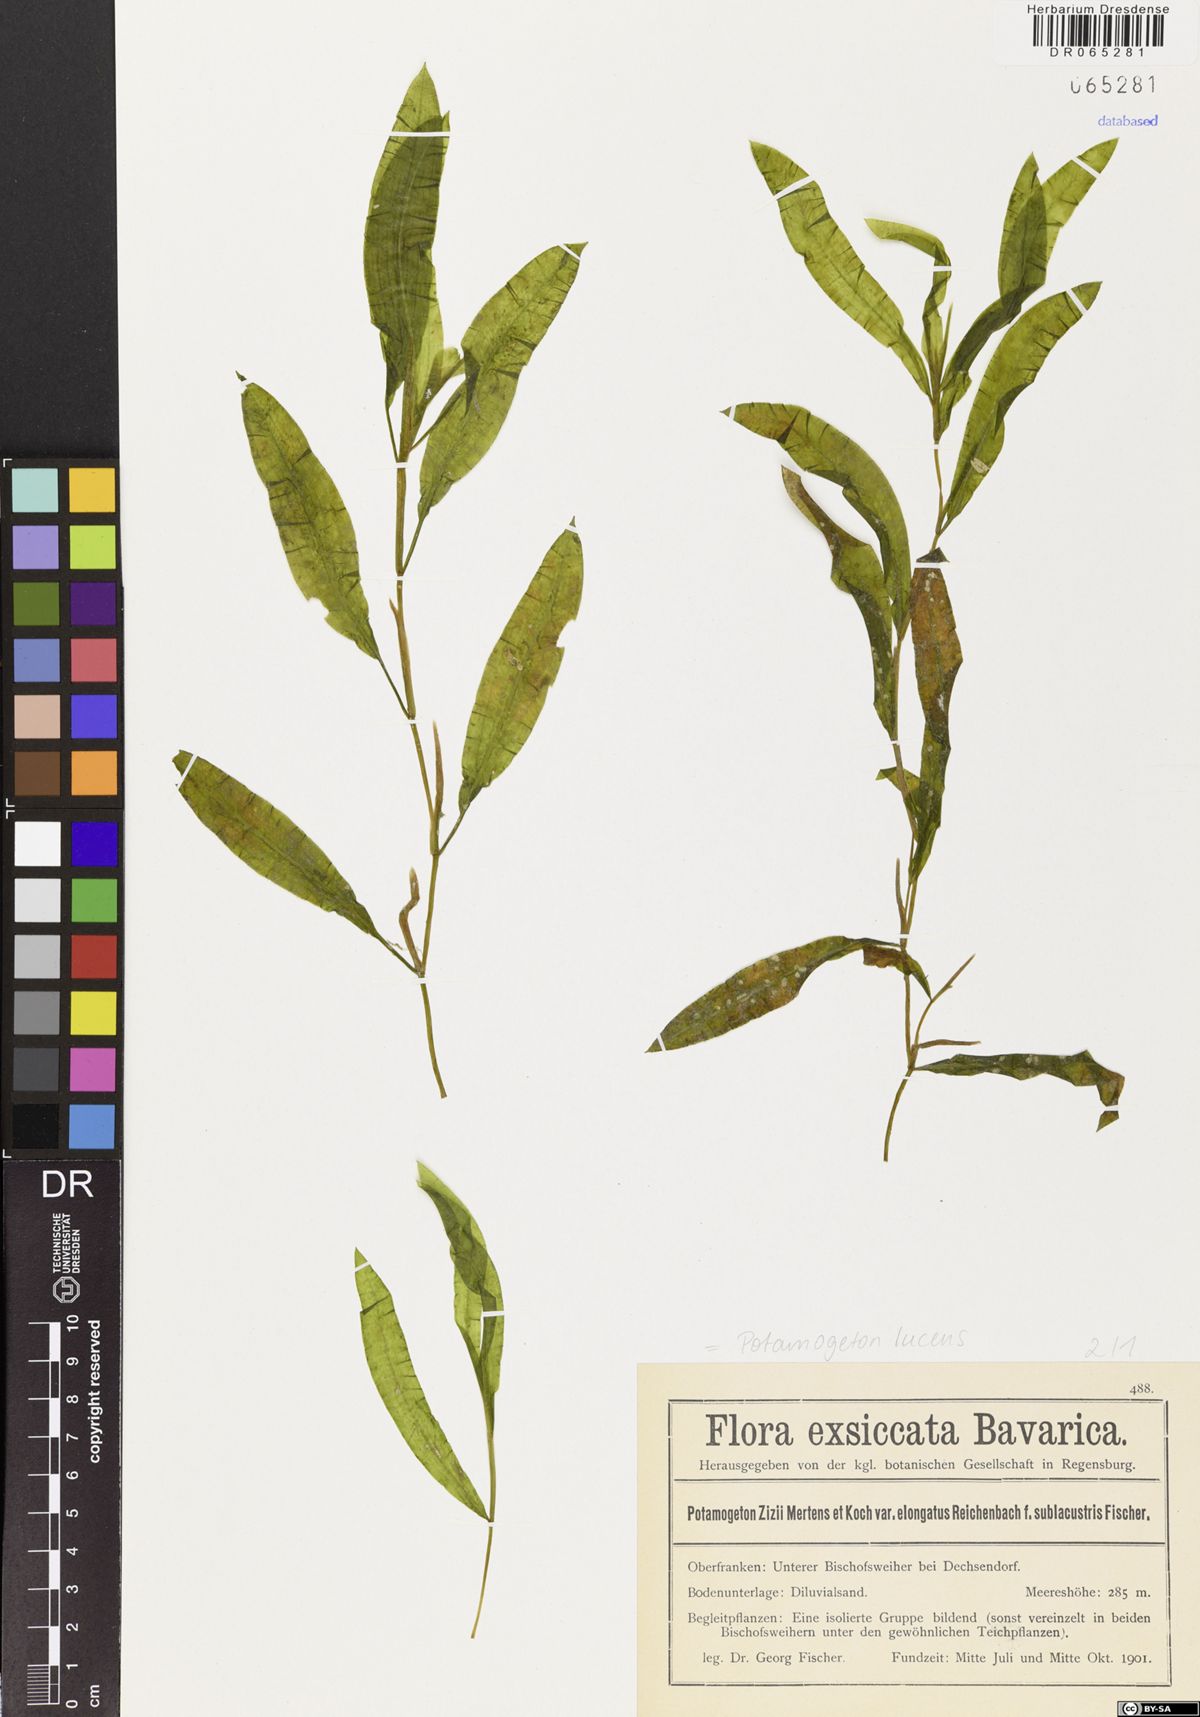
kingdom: Plantae
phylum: Tracheophyta
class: Liliopsida
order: Alismatales
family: Potamogetonaceae
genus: Potamogeton
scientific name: Potamogeton lucens
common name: Shining pondweed
